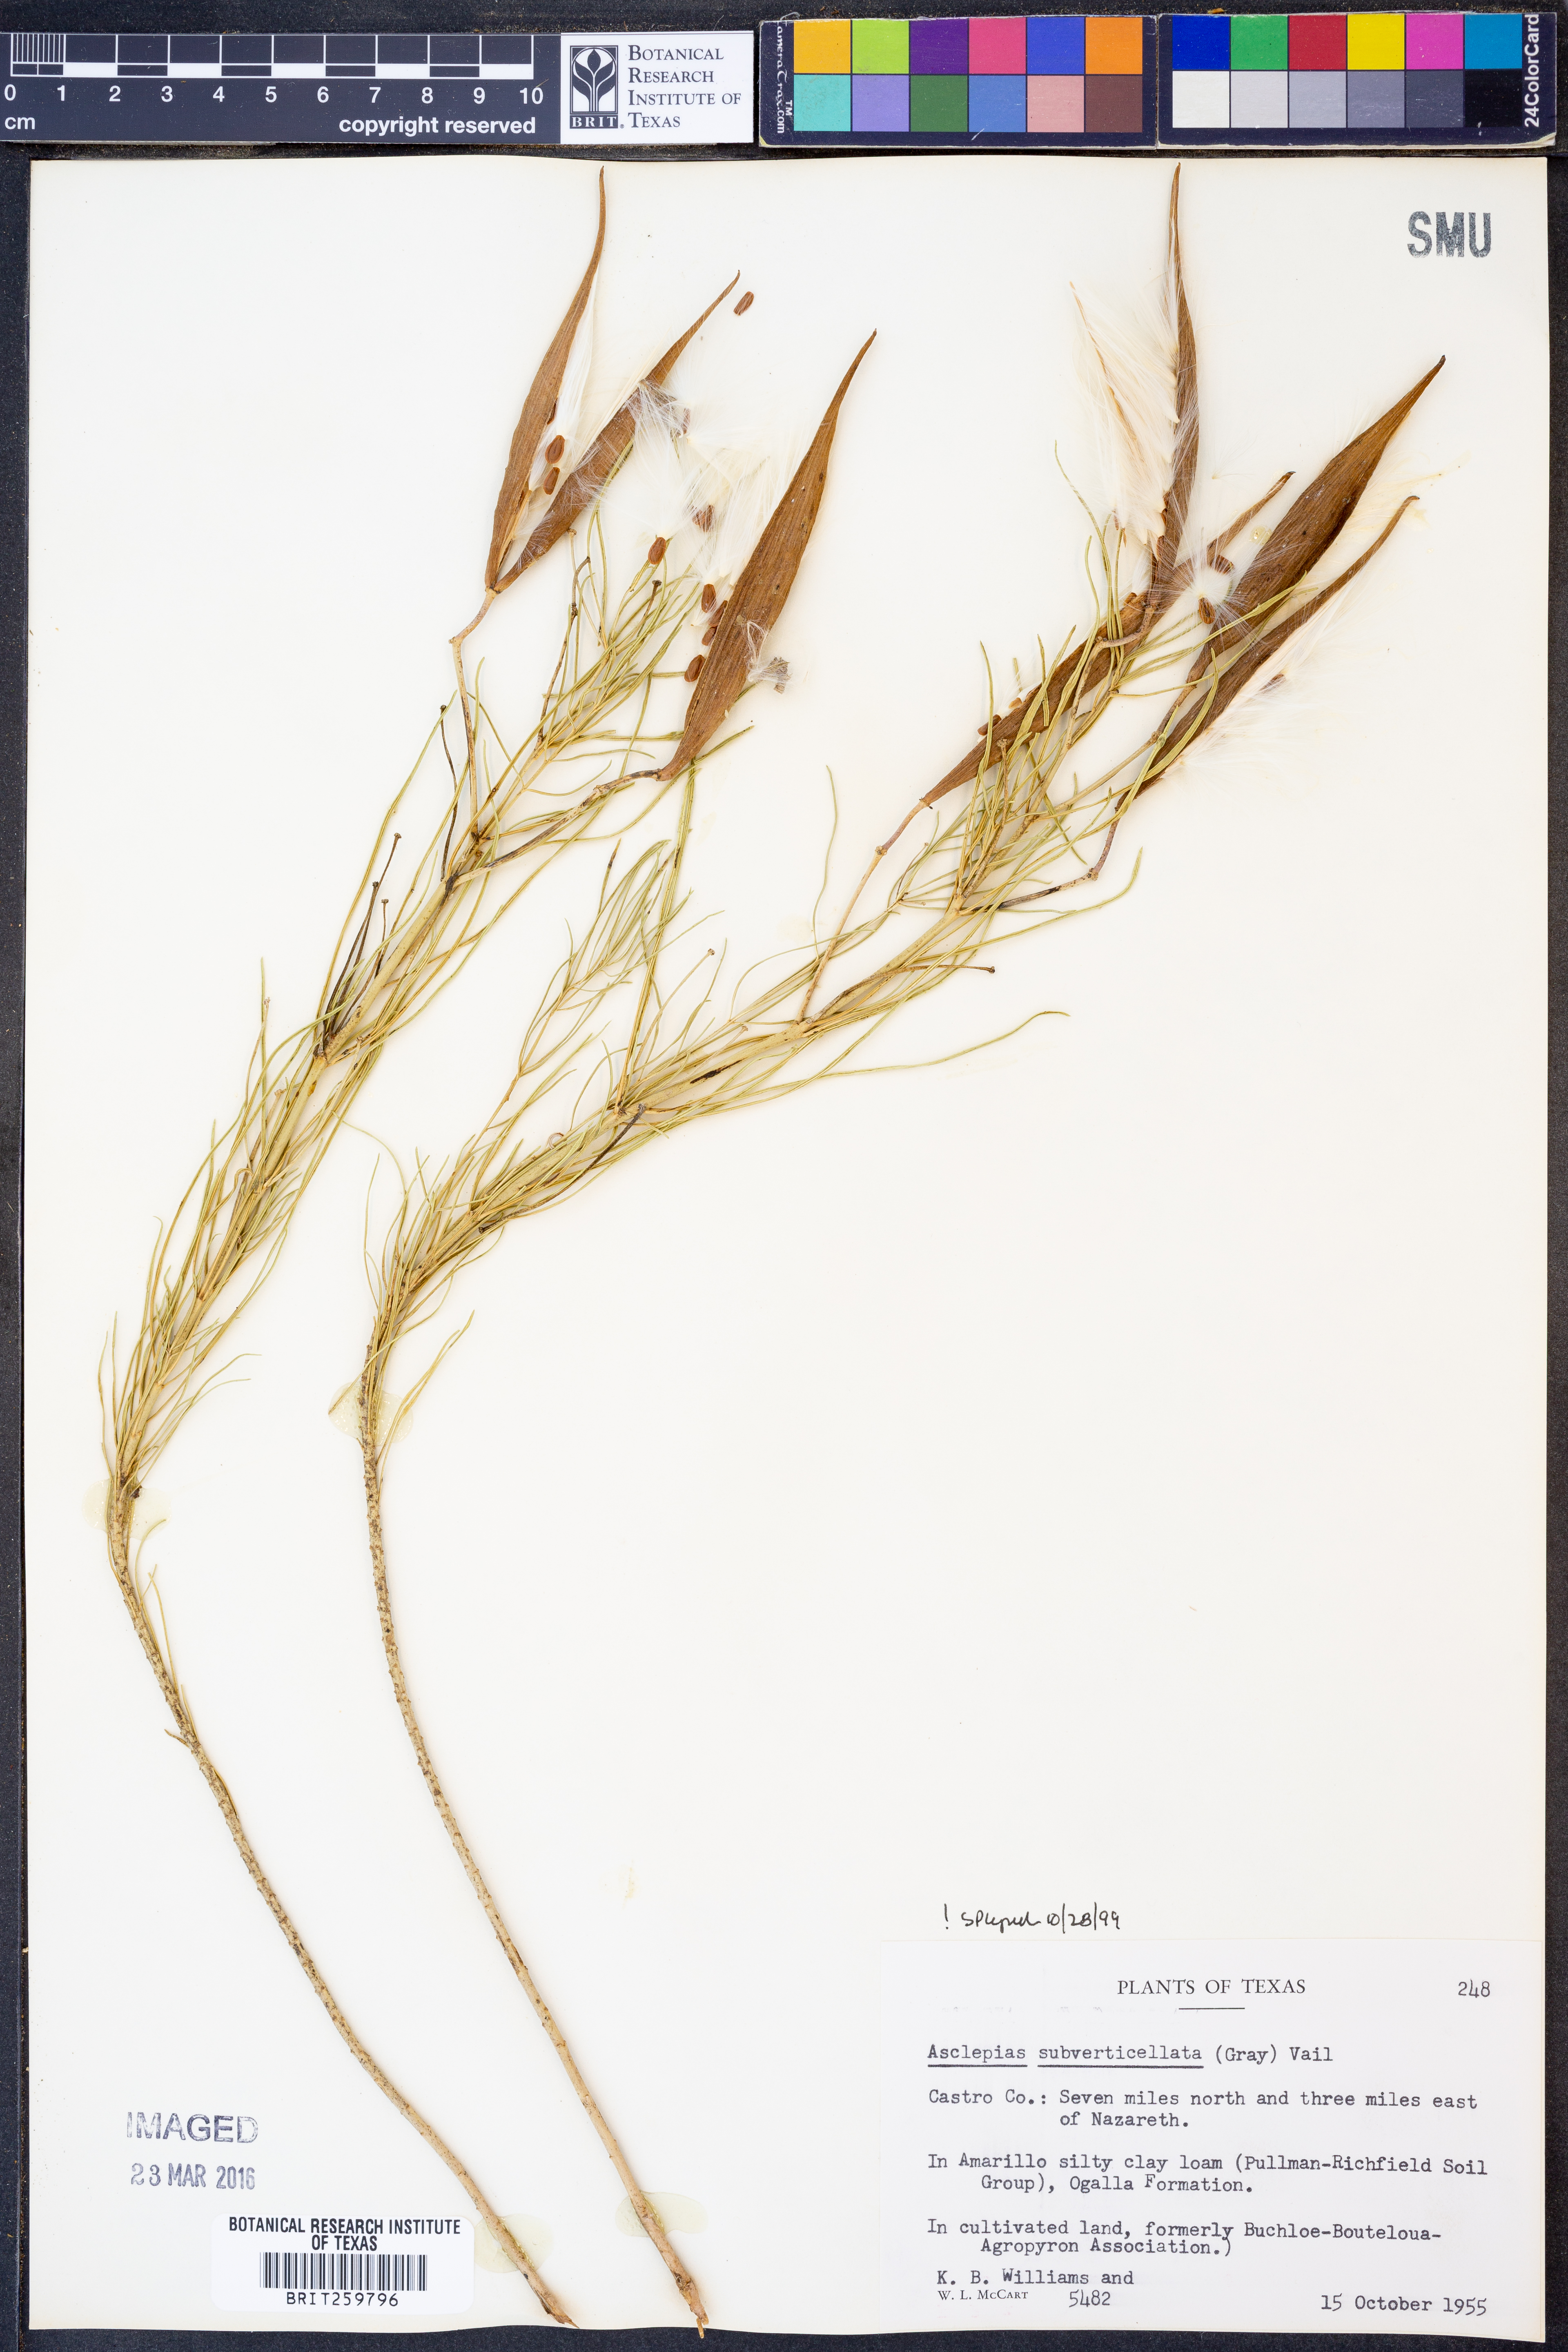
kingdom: Plantae
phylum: Tracheophyta
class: Magnoliopsida
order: Gentianales
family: Apocynaceae
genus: Asclepias
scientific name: Asclepias subverticillata
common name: Horsetail milkweed
